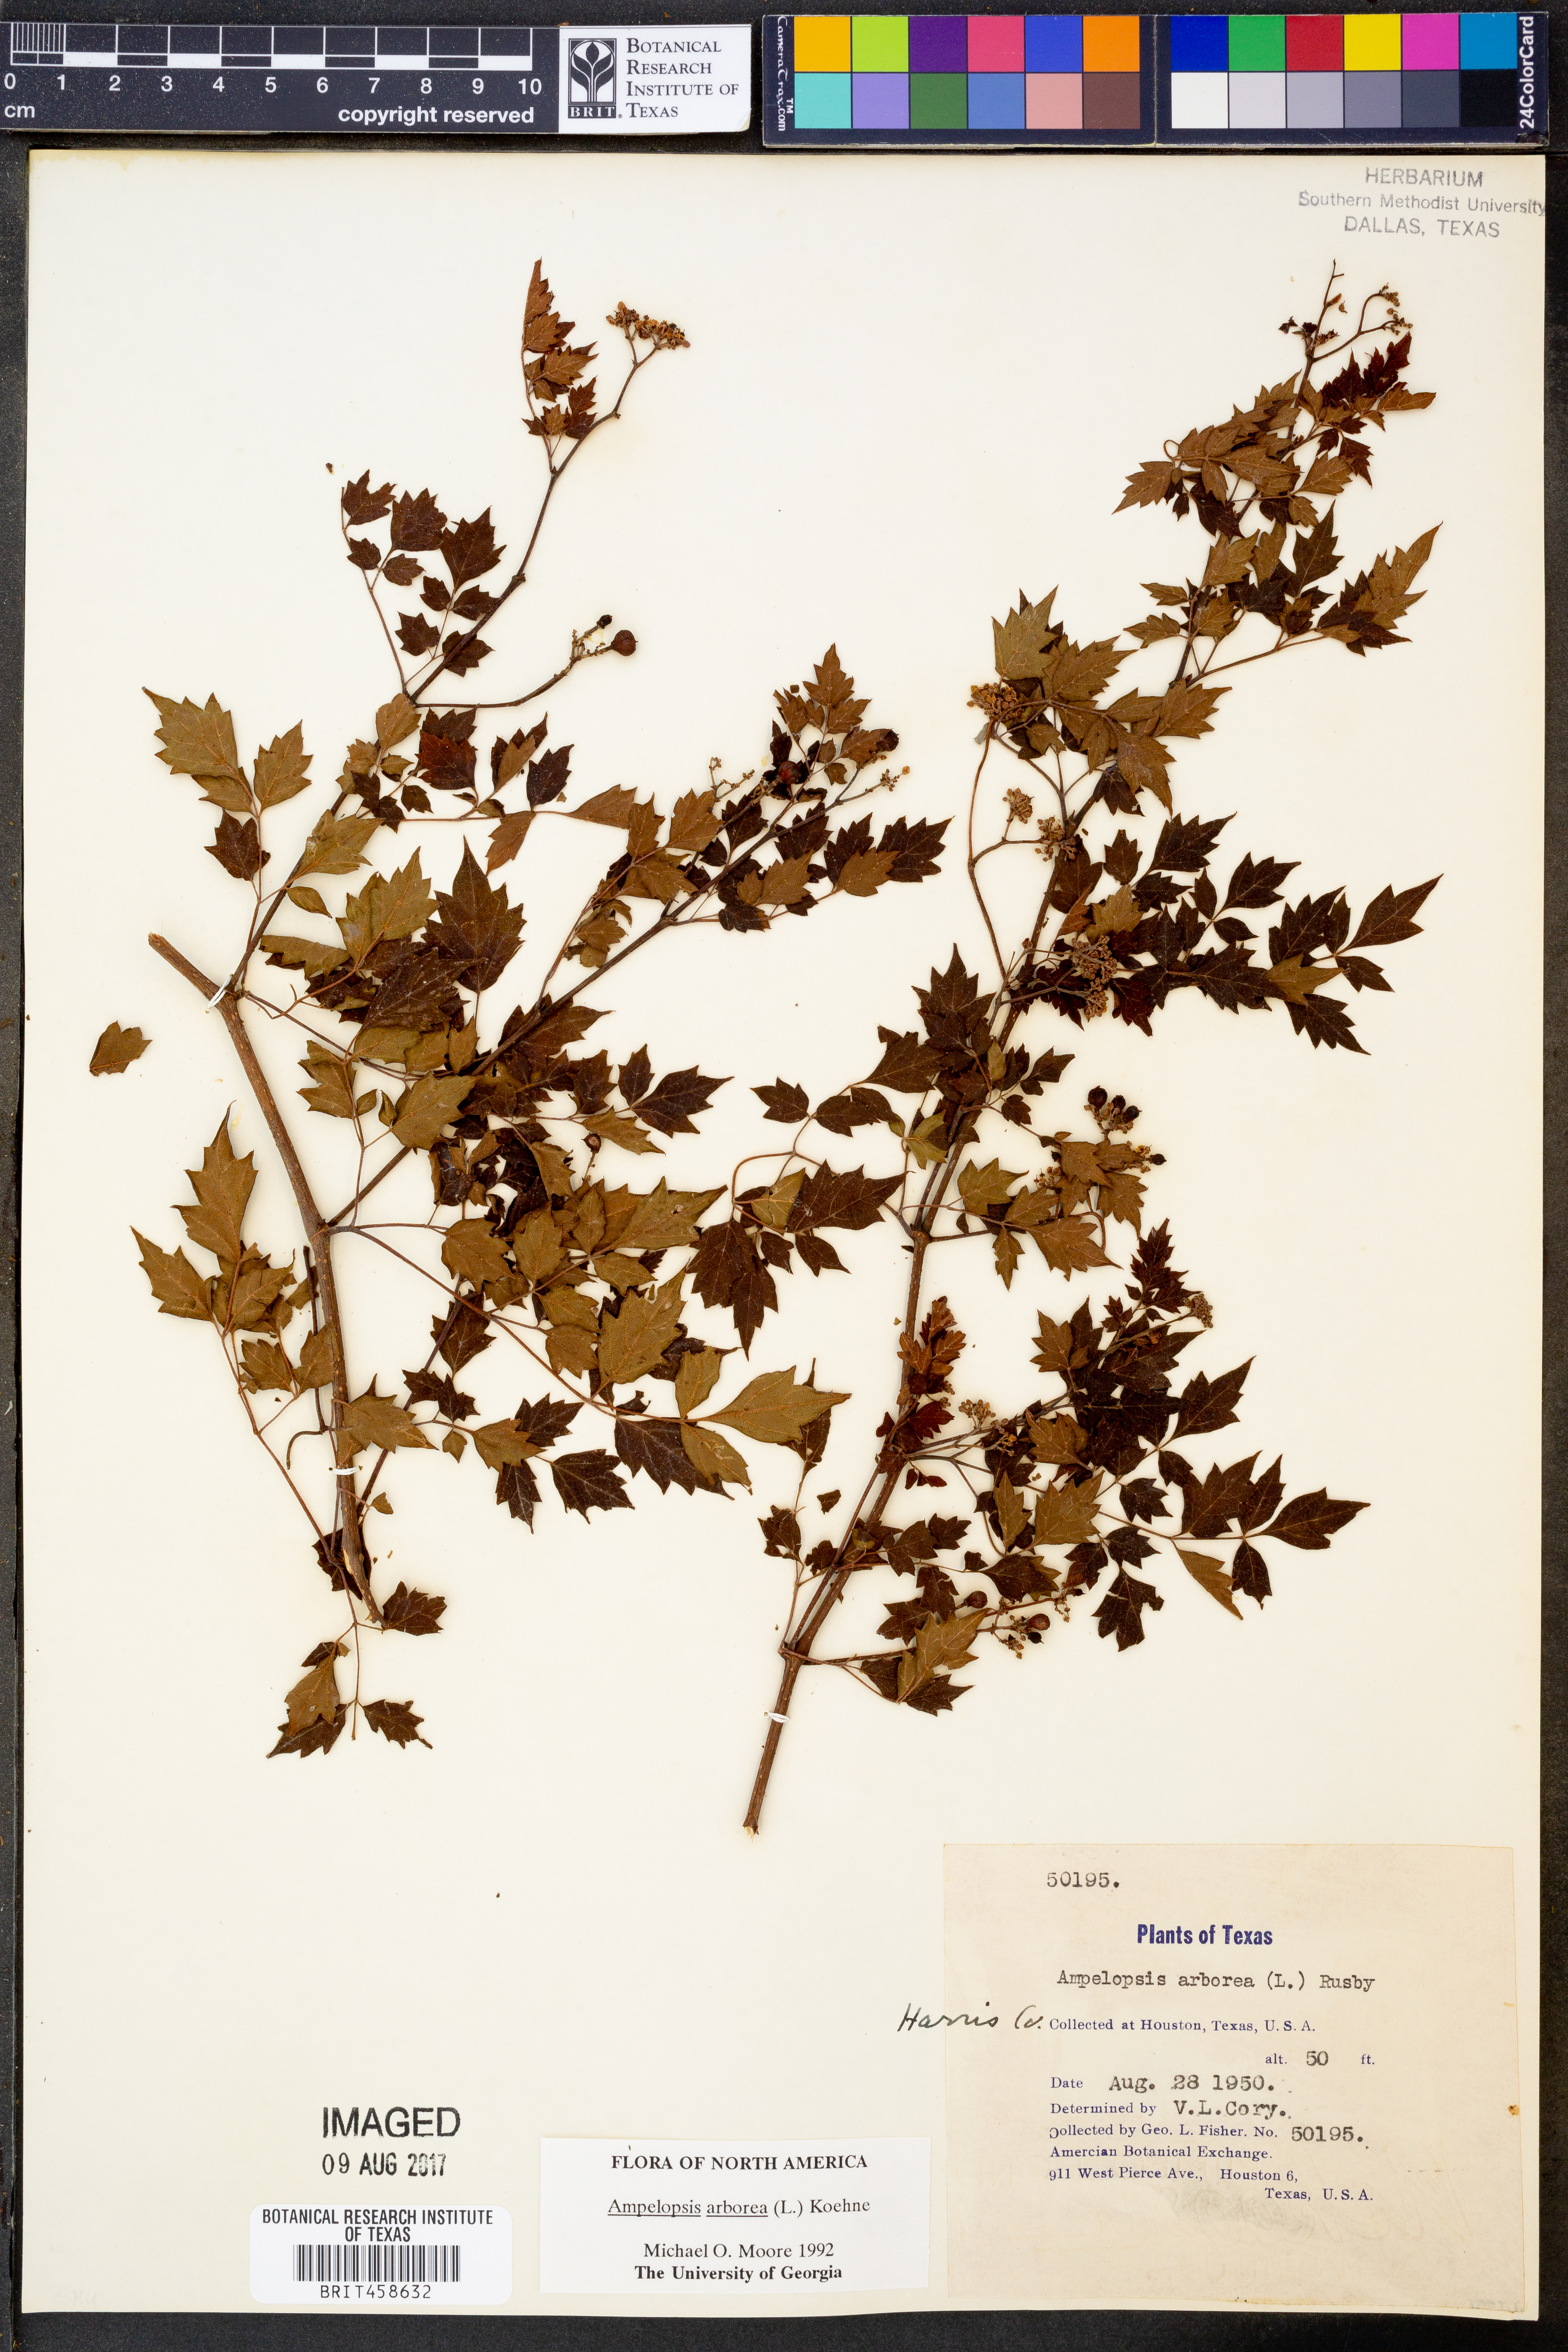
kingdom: Plantae
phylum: Tracheophyta
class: Magnoliopsida
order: Vitales
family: Vitaceae
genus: Nekemias
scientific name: Nekemias arborea
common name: Peppervine
